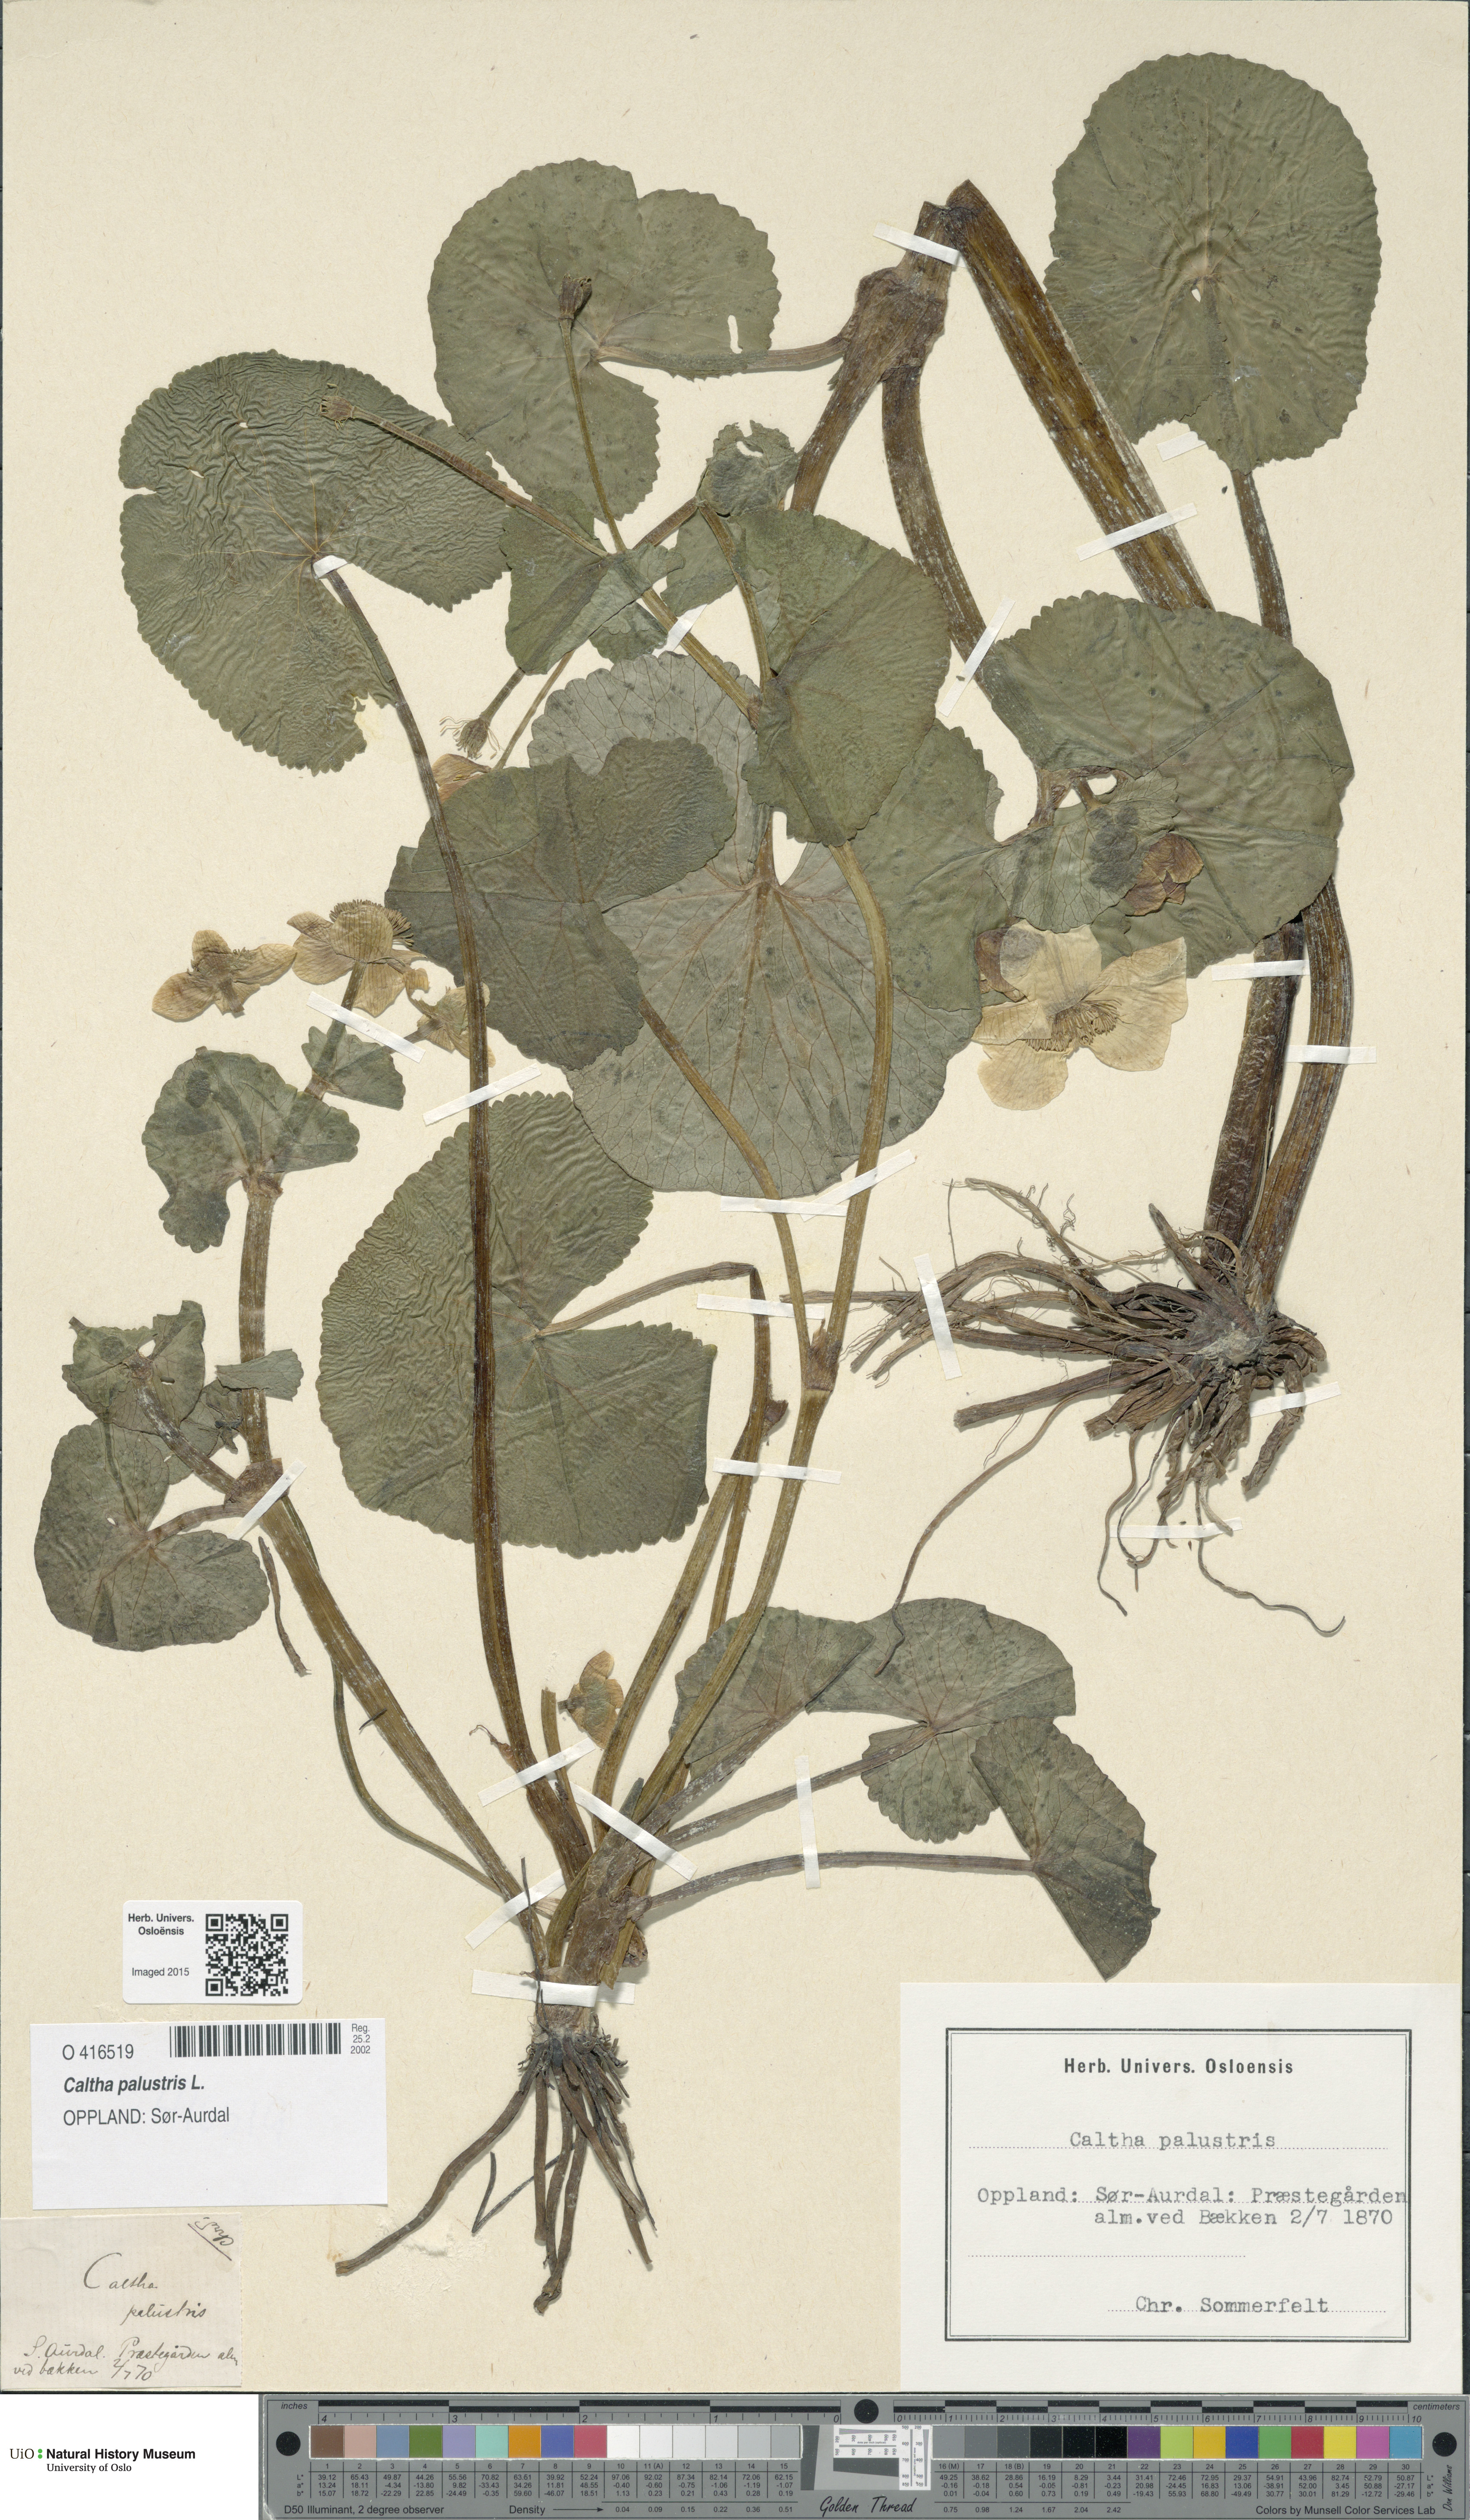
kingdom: Plantae
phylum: Tracheophyta
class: Magnoliopsida
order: Ranunculales
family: Ranunculaceae
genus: Caltha
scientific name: Caltha palustris
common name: Marsh marigold
